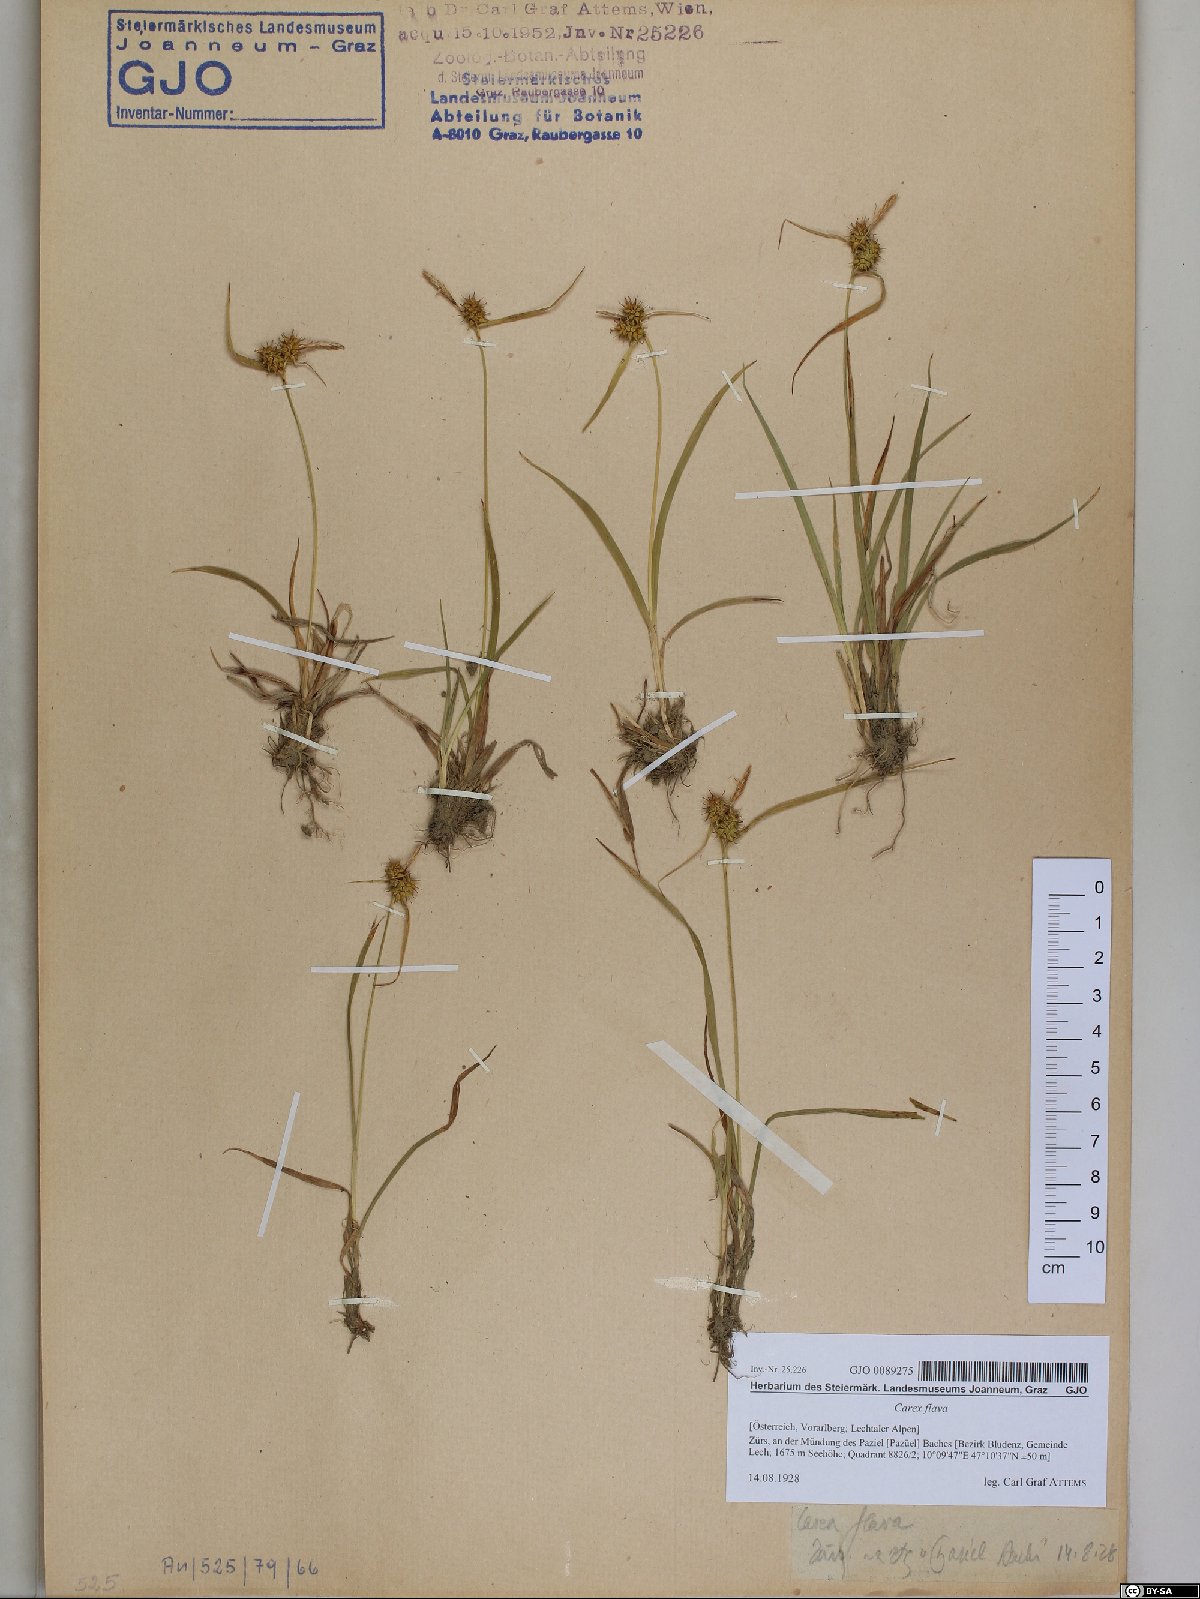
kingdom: Plantae
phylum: Tracheophyta
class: Liliopsida
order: Poales
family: Cyperaceae
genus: Carex
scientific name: Carex flava
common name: Large yellow-sedge
